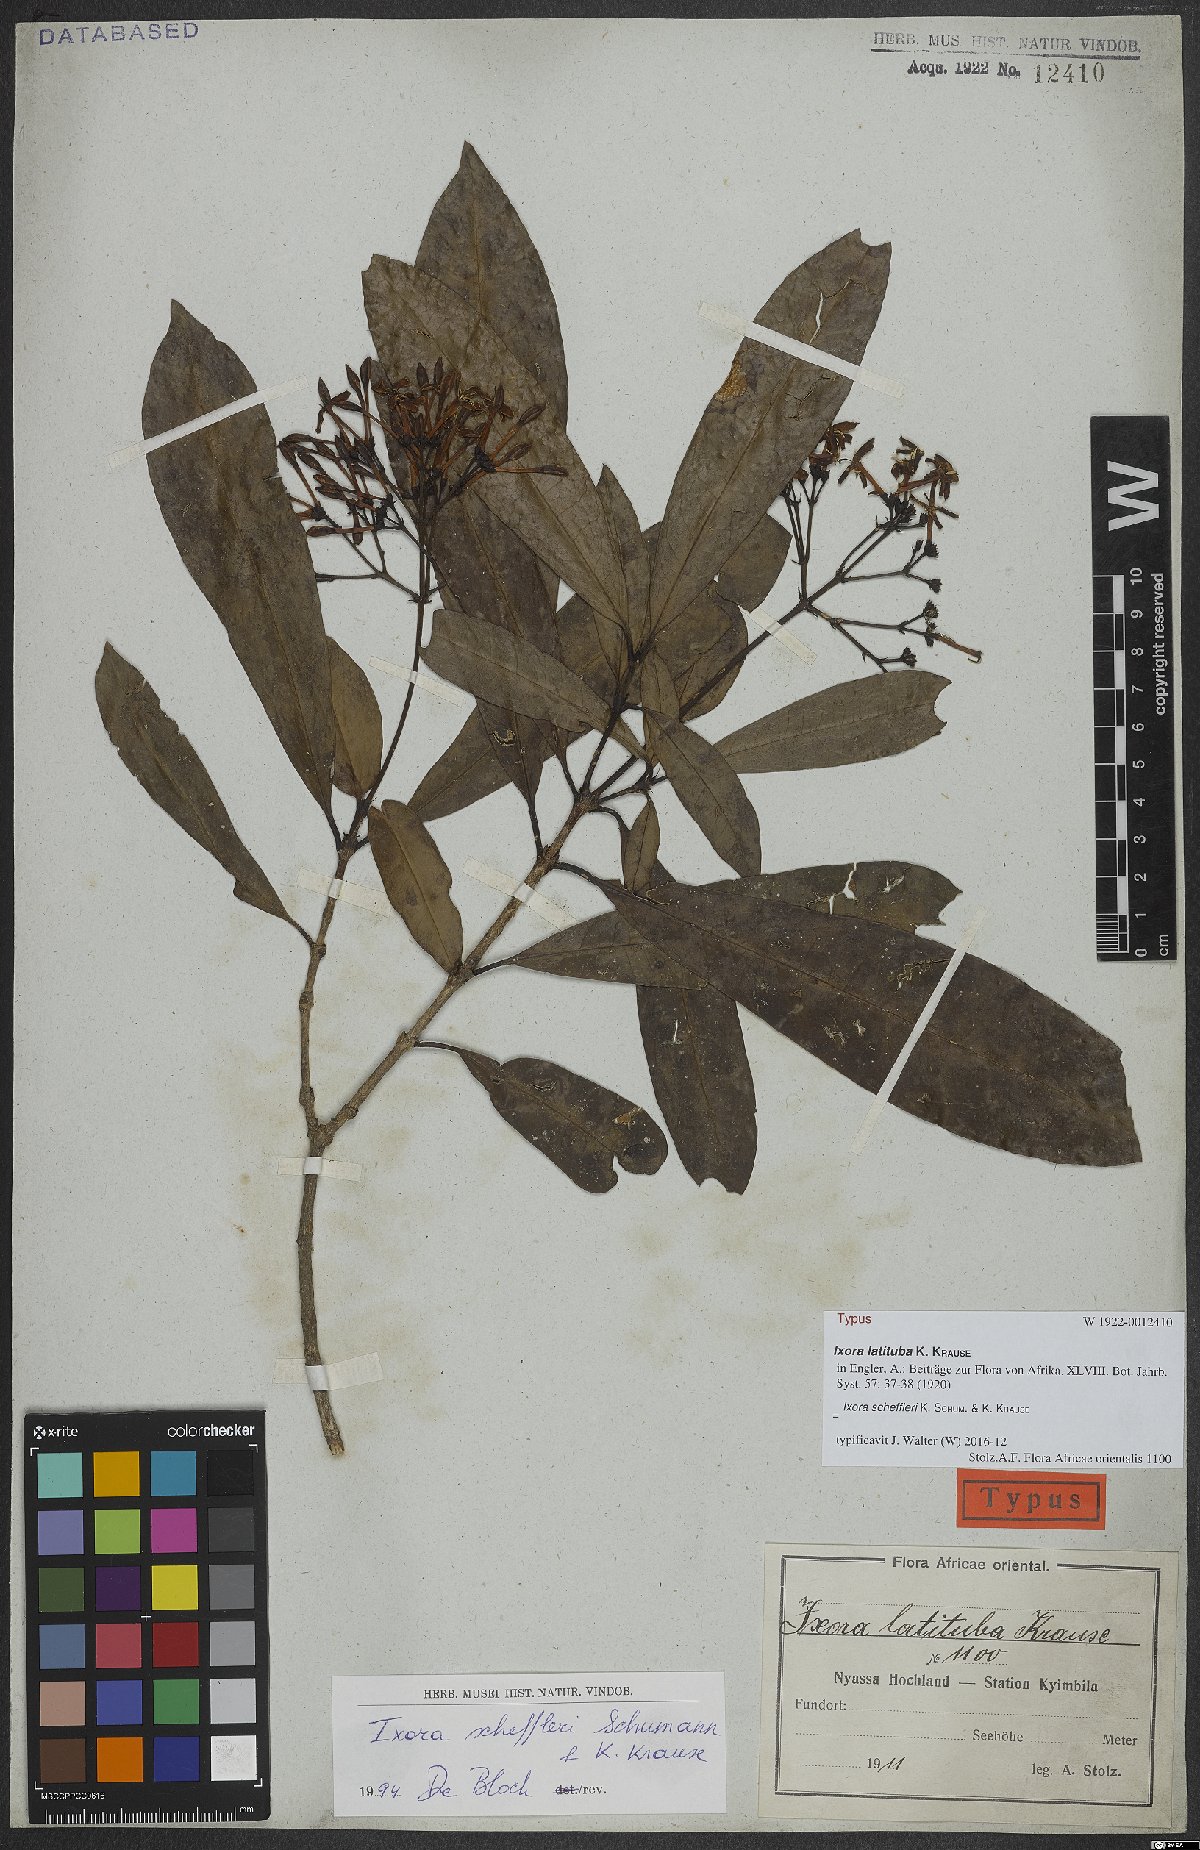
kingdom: Plantae
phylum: Tracheophyta
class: Magnoliopsida
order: Gentianales
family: Rubiaceae
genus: Ixora
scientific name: Ixora scheffleri
